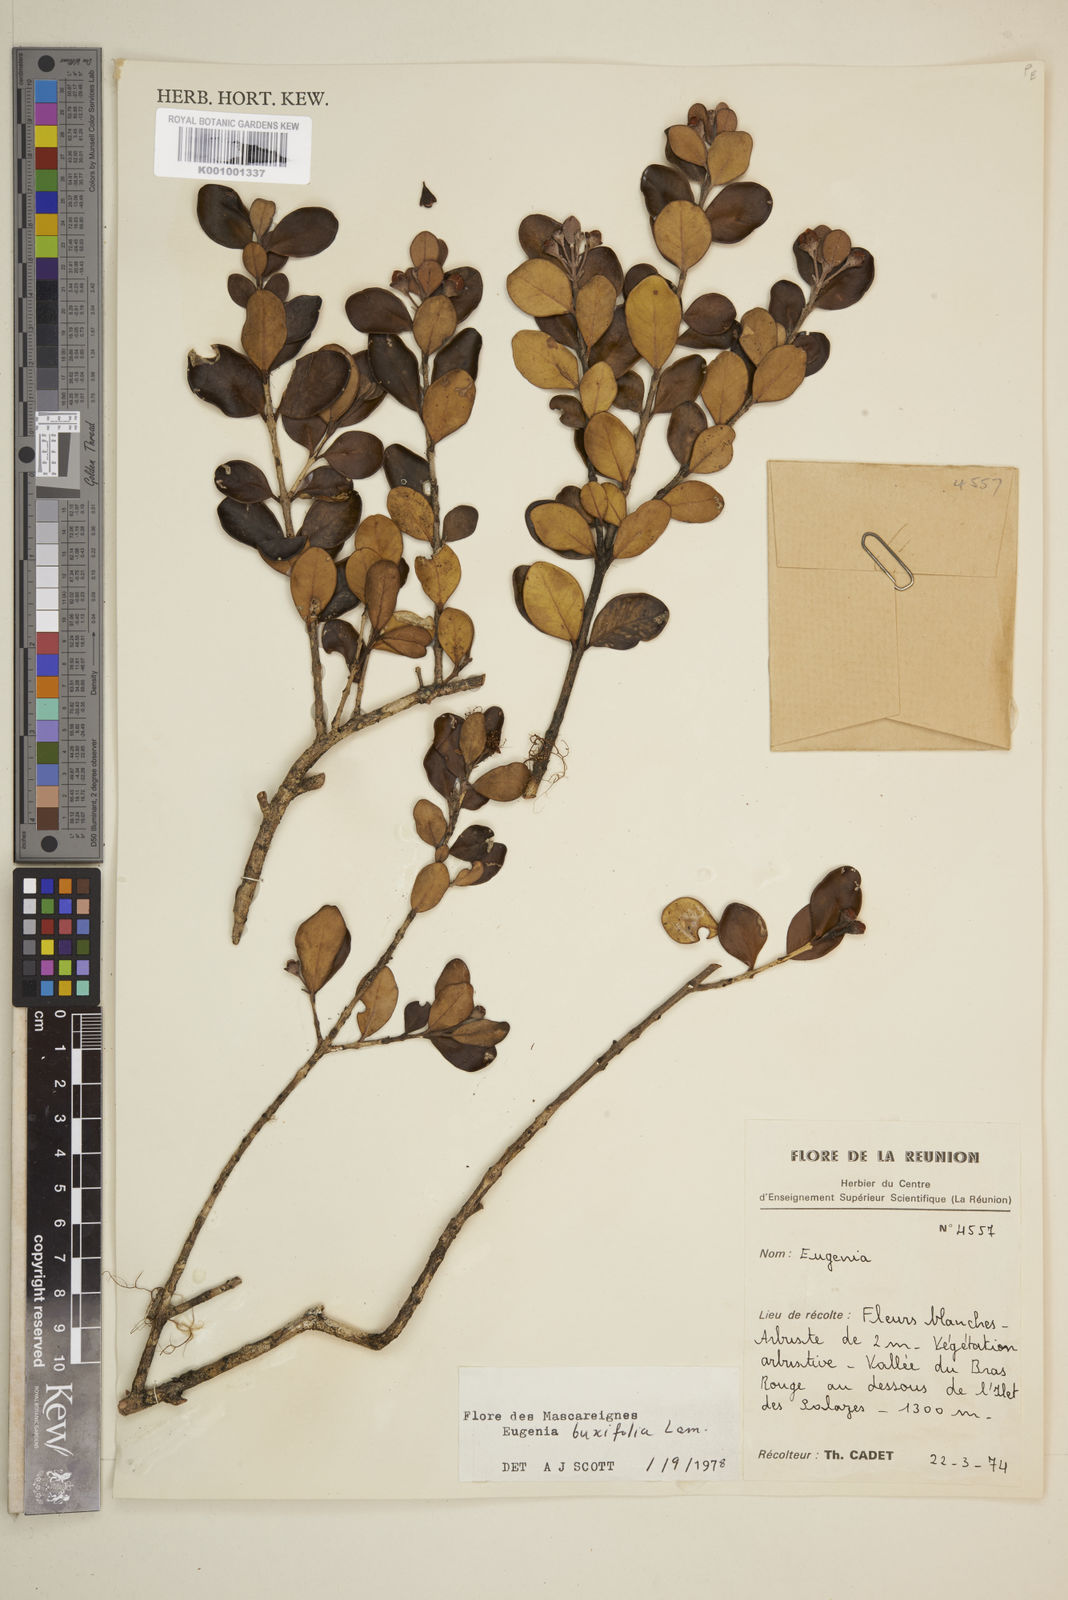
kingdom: Plantae
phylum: Tracheophyta
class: Magnoliopsida
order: Myrtales
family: Myrtaceae
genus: Eugenia
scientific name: Eugenia buxifolia
